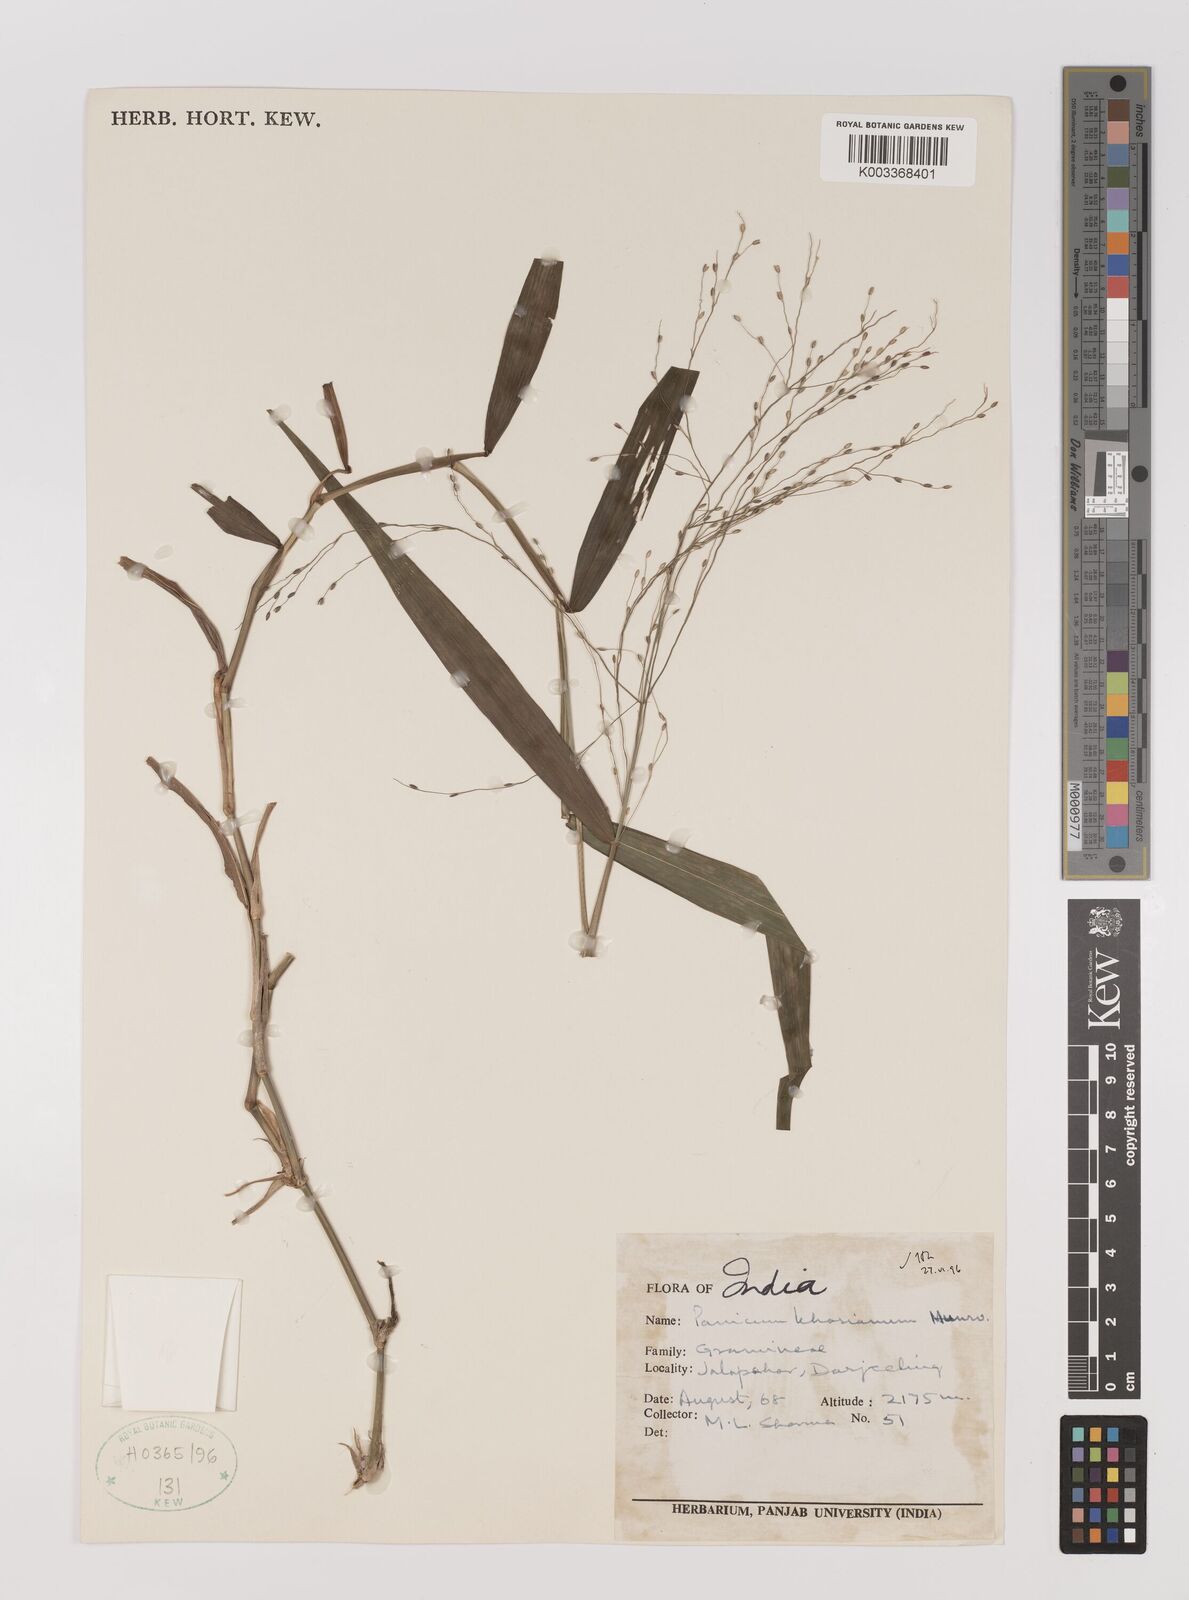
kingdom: Plantae
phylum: Tracheophyta
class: Liliopsida
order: Poales
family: Poaceae
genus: Panicum
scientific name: Panicum khasianum
